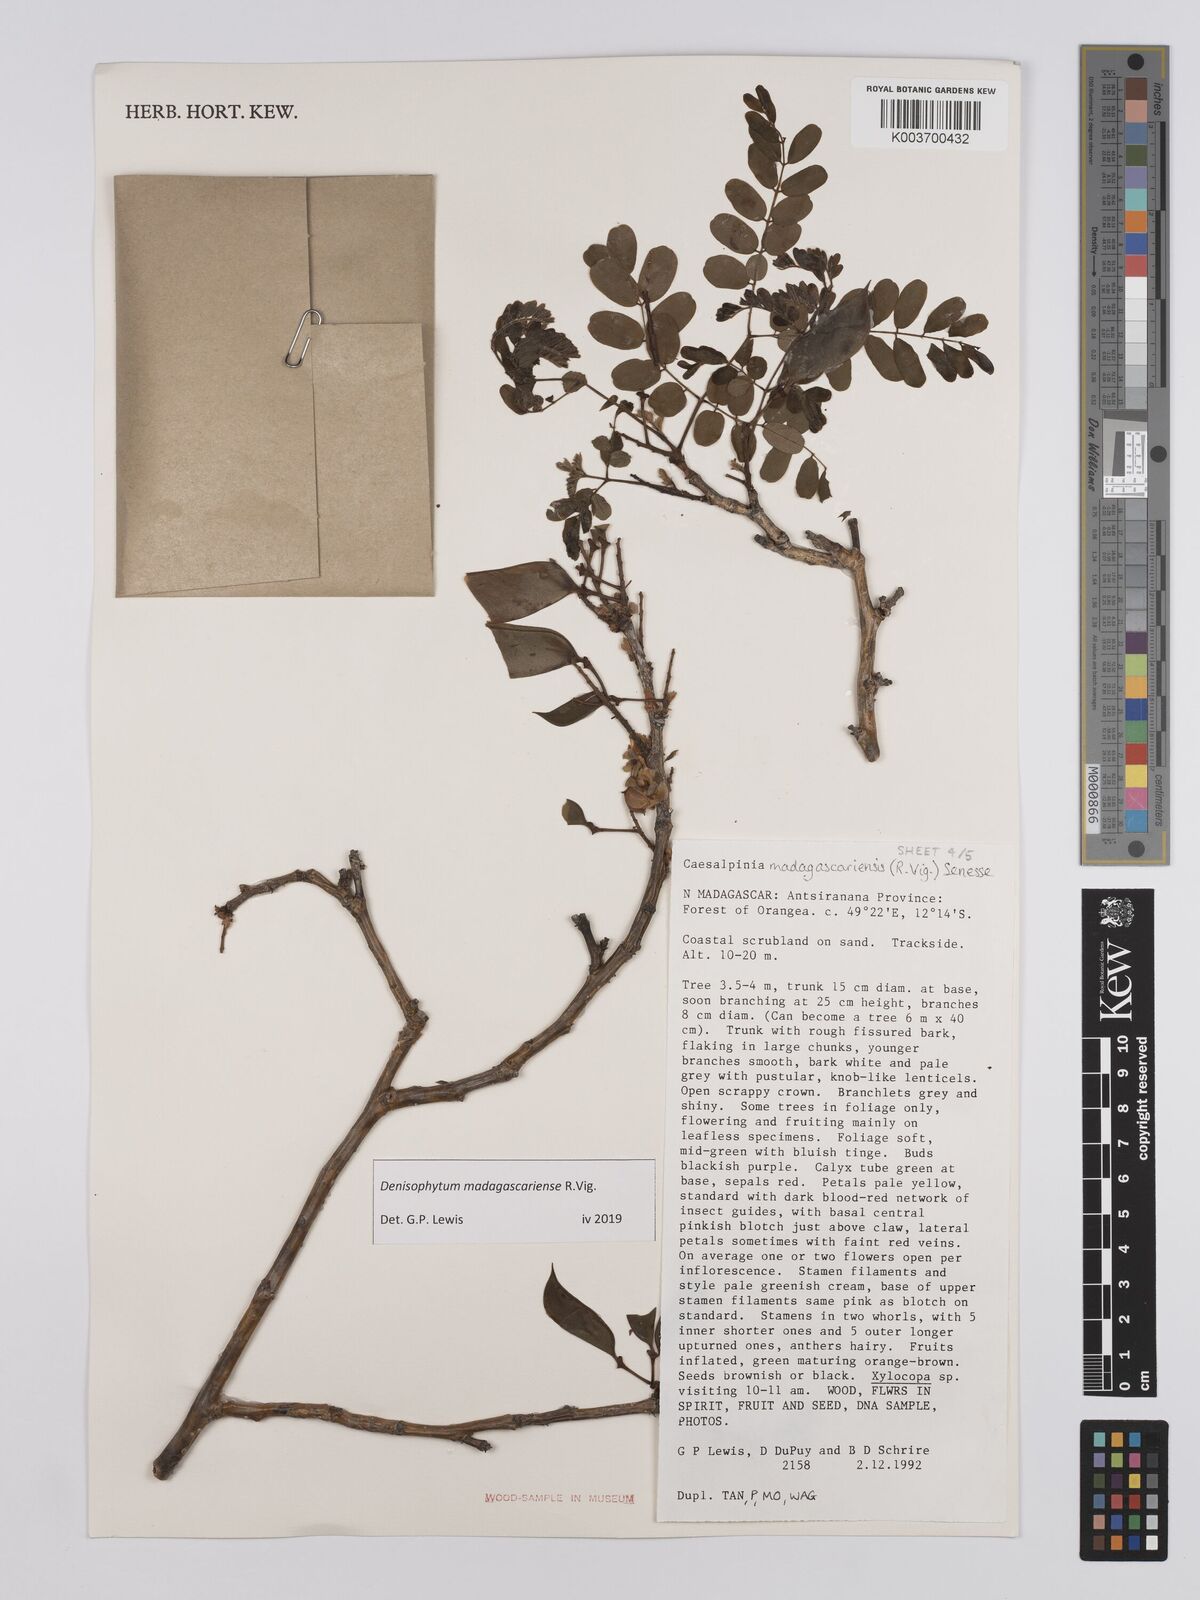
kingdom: Plantae
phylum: Tracheophyta
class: Magnoliopsida
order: Fabales
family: Fabaceae
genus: Denisophytum
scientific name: Denisophytum madagascariense
